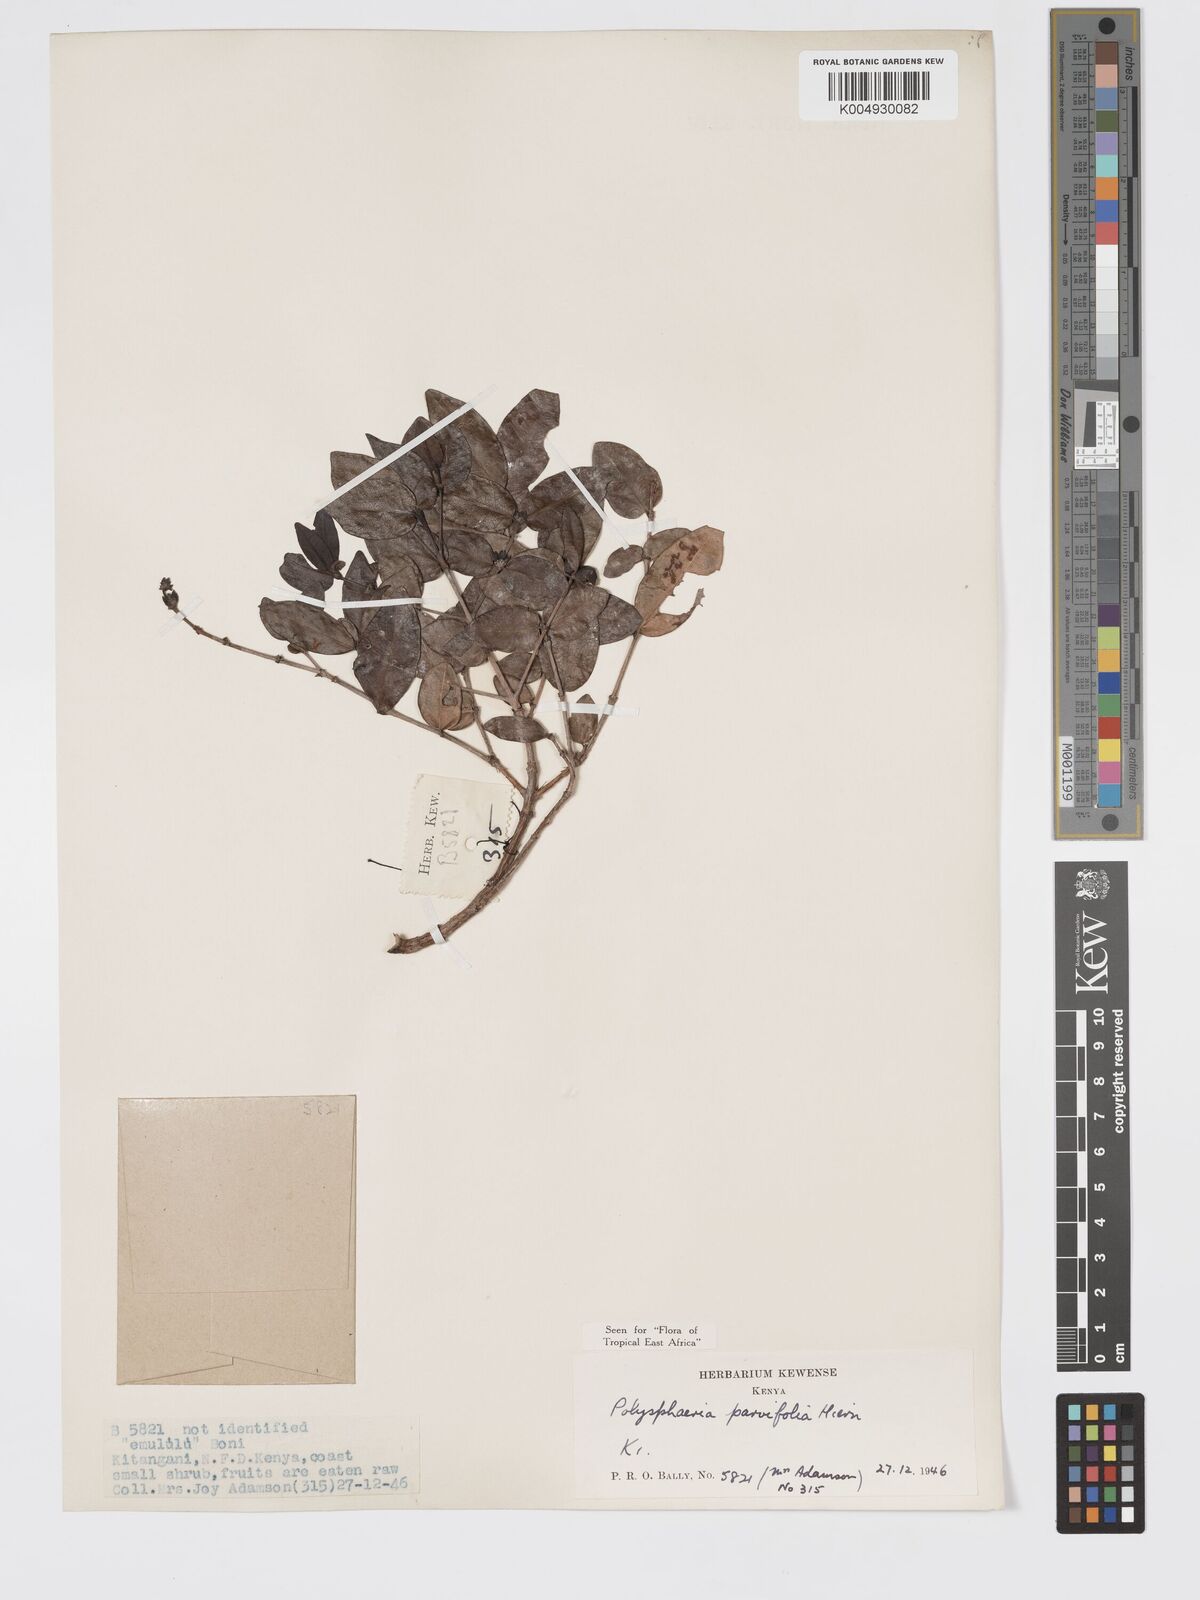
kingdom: Plantae
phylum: Tracheophyta
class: Magnoliopsida
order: Gentianales
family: Rubiaceae
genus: Polysphaeria
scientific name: Polysphaeria parvifolia
